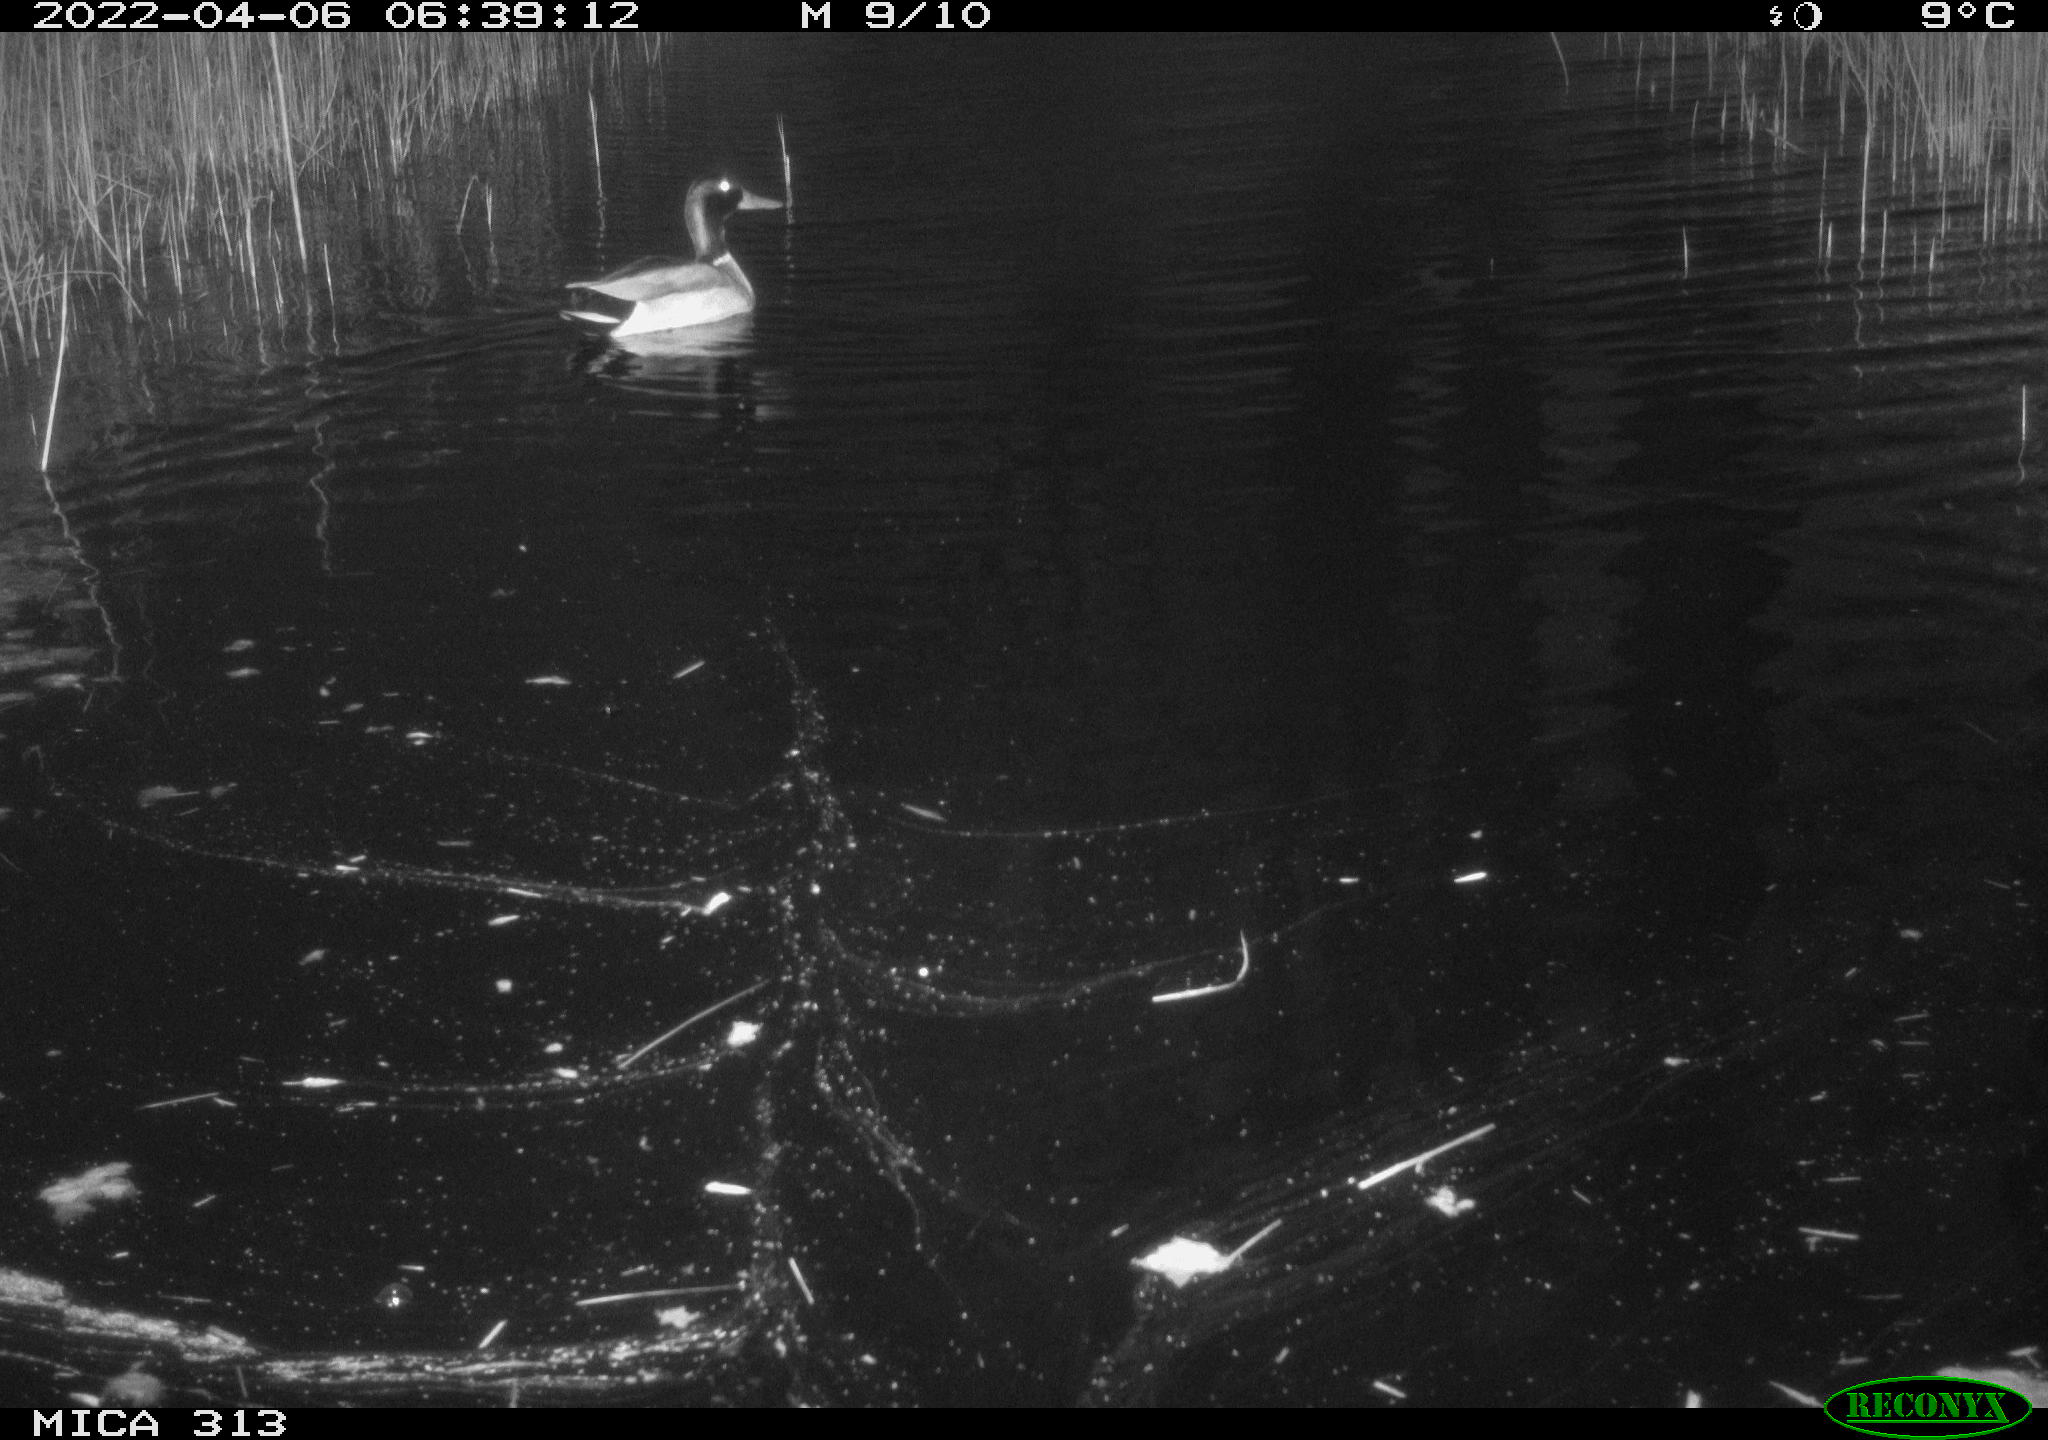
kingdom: Animalia
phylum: Chordata
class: Aves
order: Anseriformes
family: Anatidae
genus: Anas
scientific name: Anas platyrhynchos
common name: Mallard
